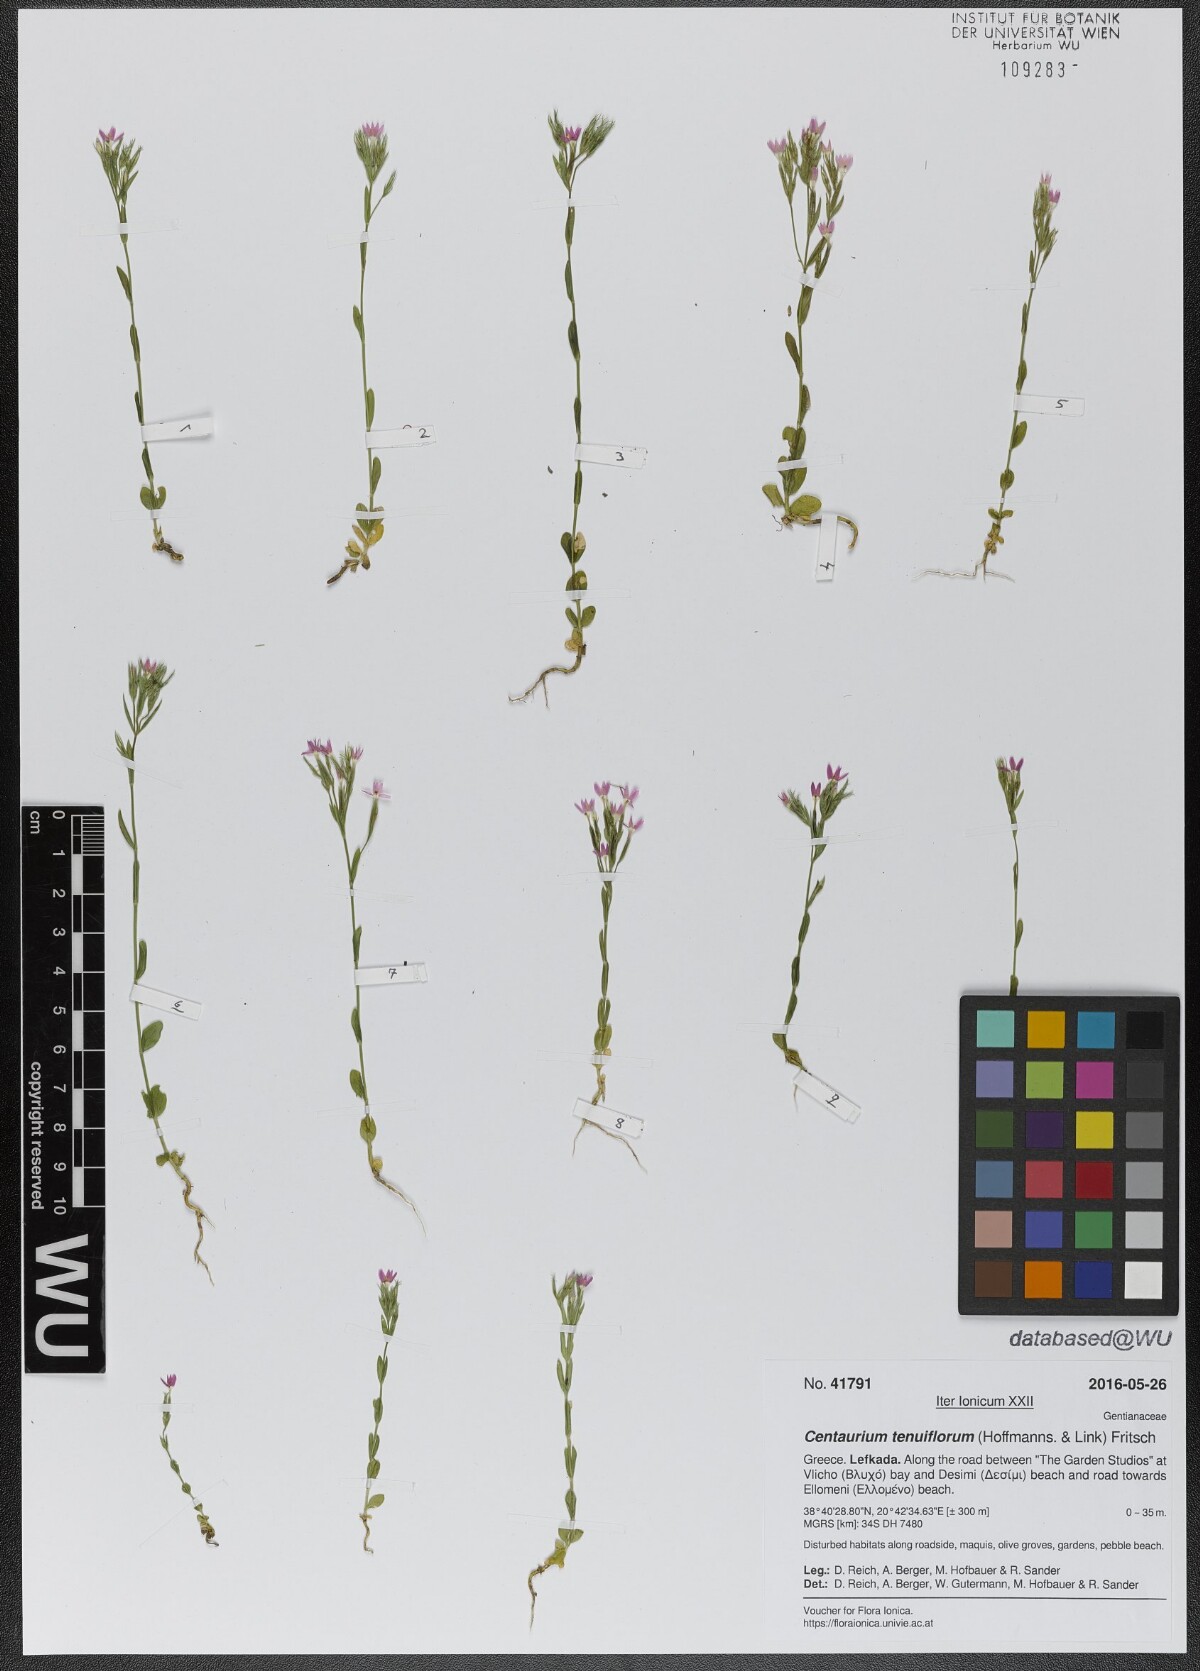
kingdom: Plantae
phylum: Tracheophyta
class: Magnoliopsida
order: Gentianales
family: Gentianaceae
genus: Centaurium
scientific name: Centaurium tenuiflorum
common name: Slender centaury
